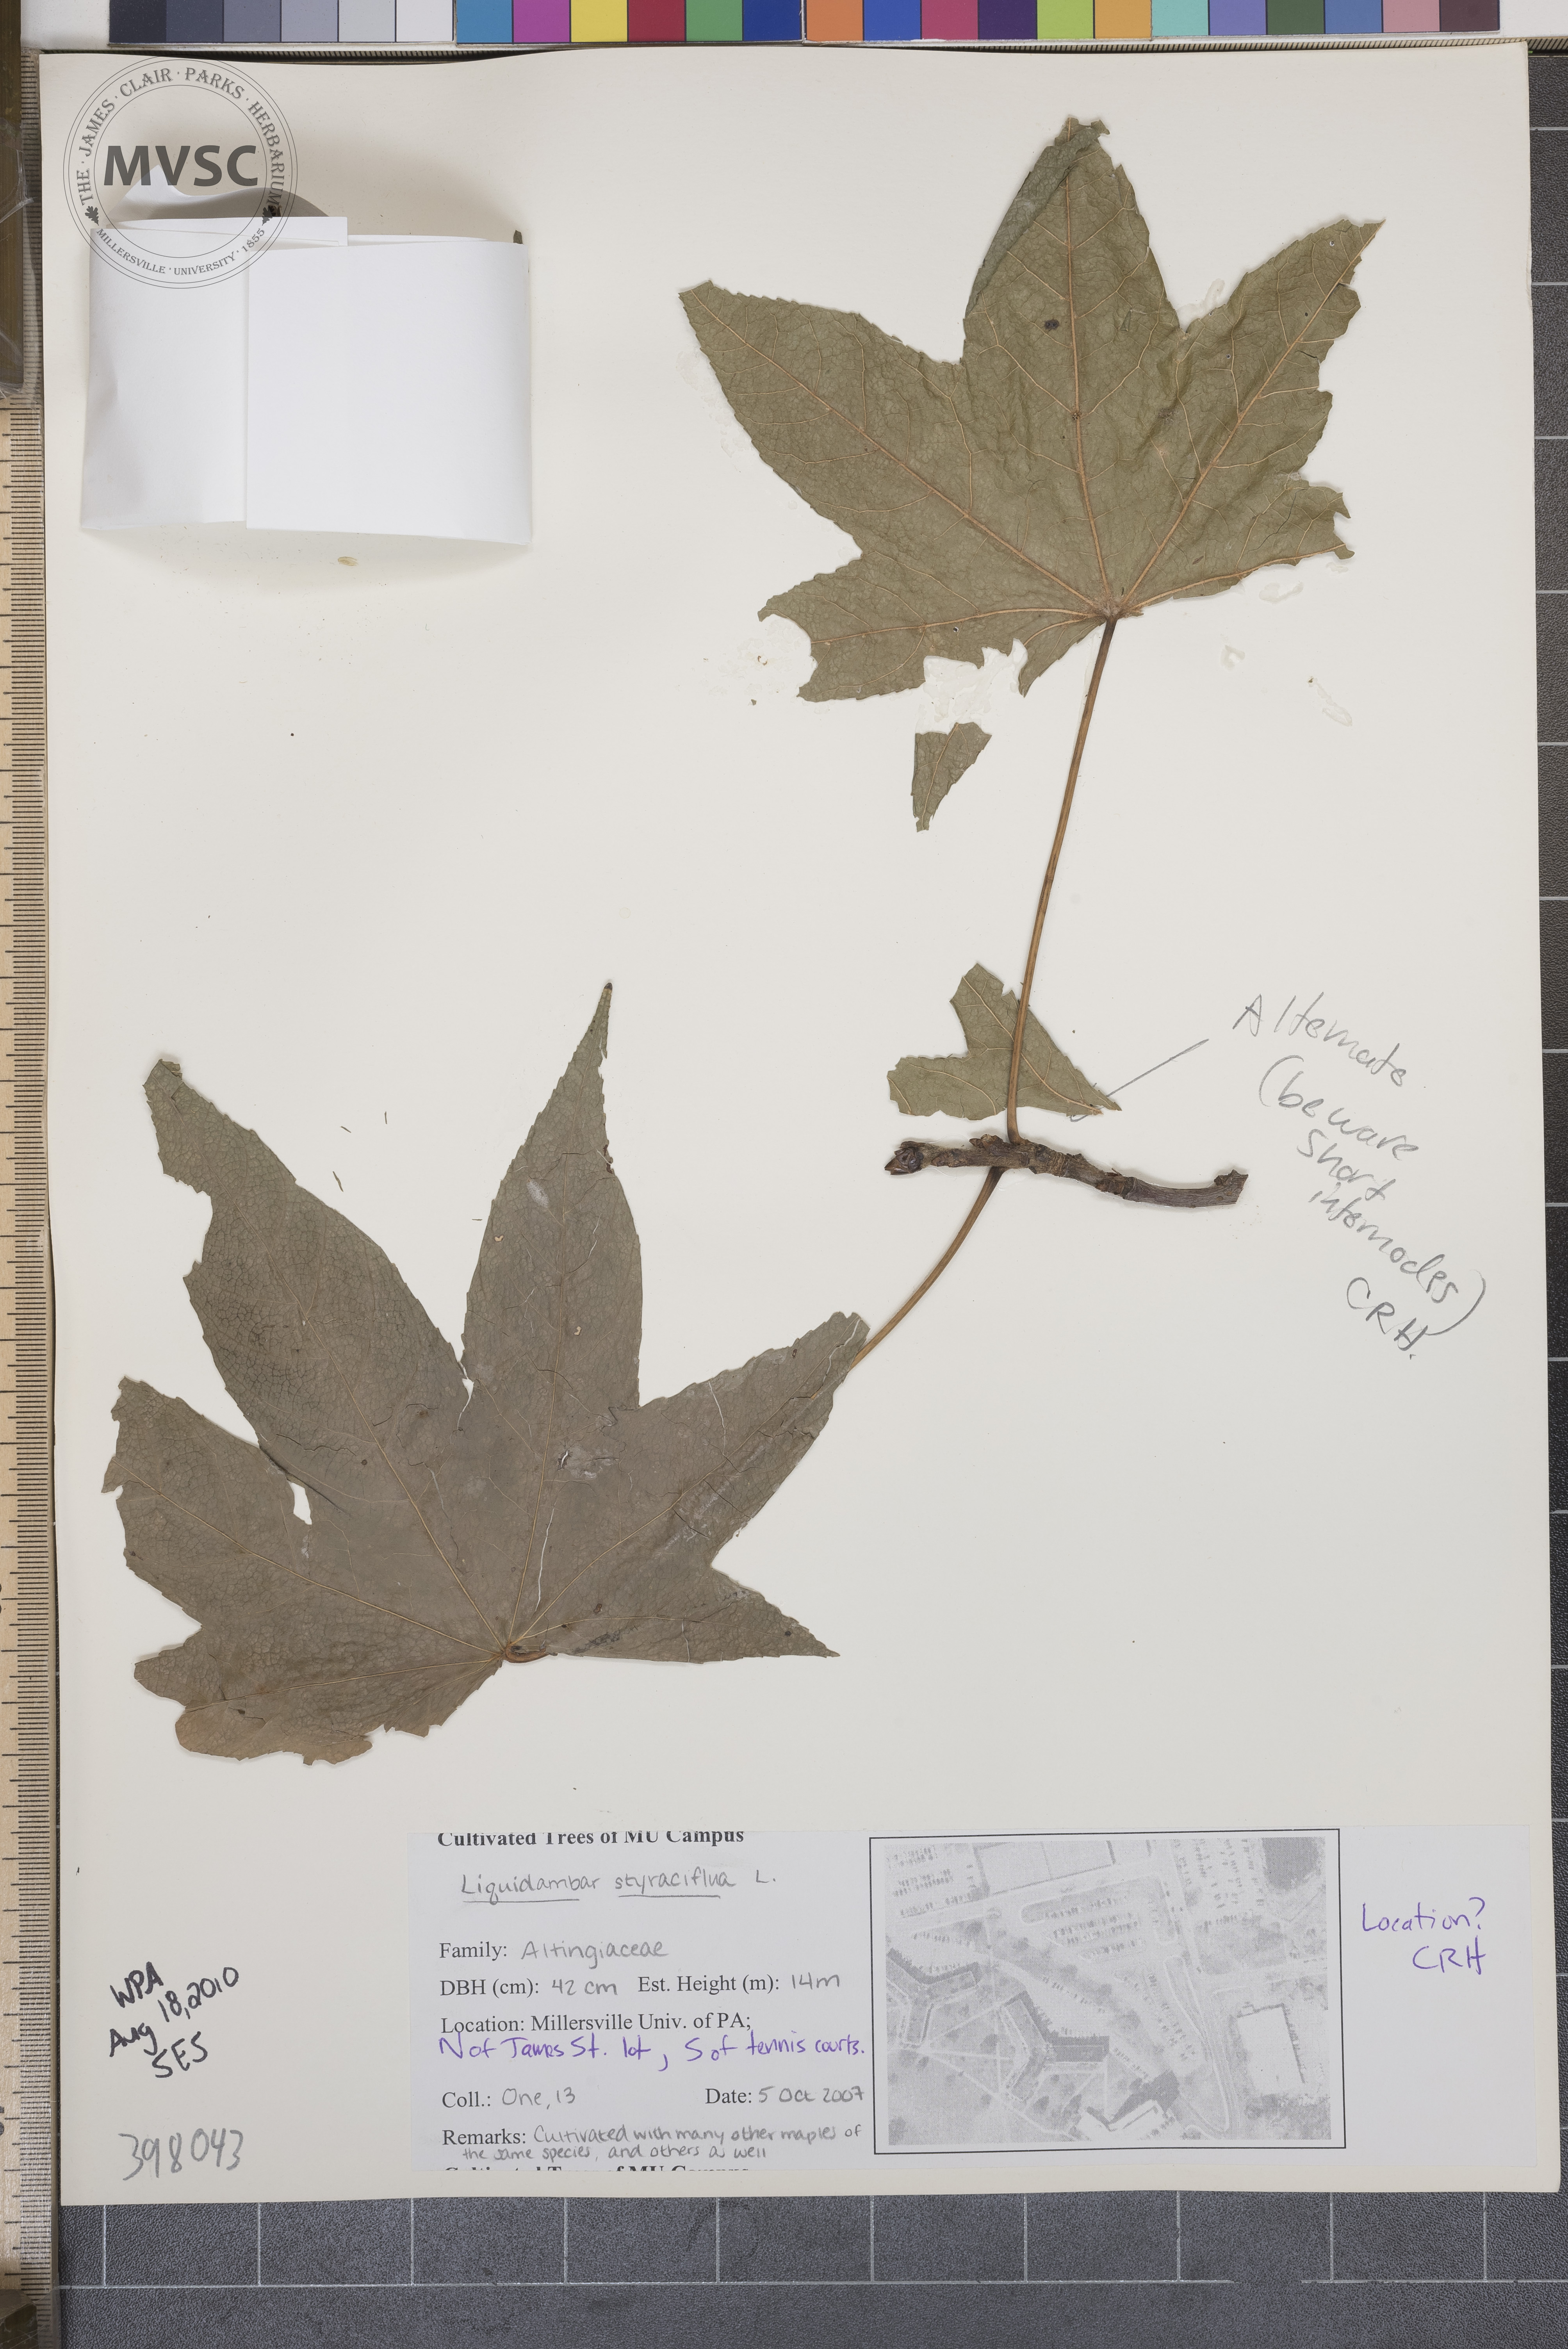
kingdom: Plantae
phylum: Tracheophyta
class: Magnoliopsida
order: Saxifragales
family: Altingiaceae
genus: Liquidambar
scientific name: Liquidambar styraciflua
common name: Sweetgum
